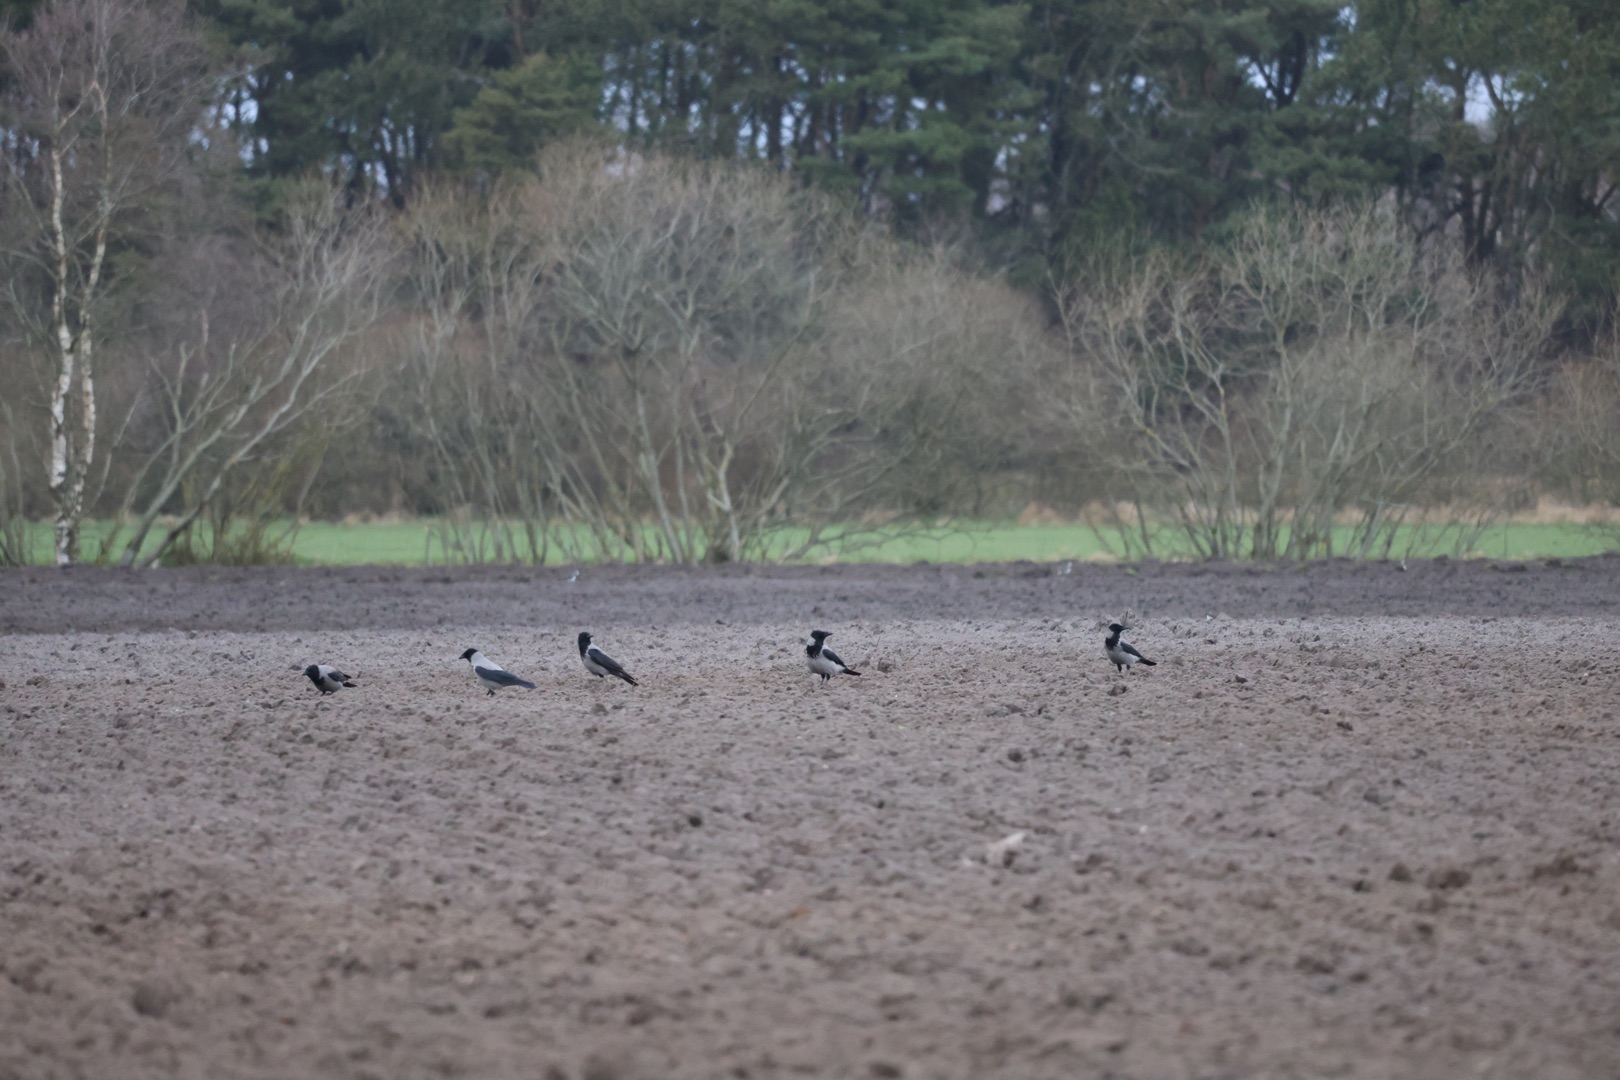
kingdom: Animalia
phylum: Chordata
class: Aves
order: Passeriformes
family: Corvidae
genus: Corvus
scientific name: Corvus cornix
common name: Gråkrage
